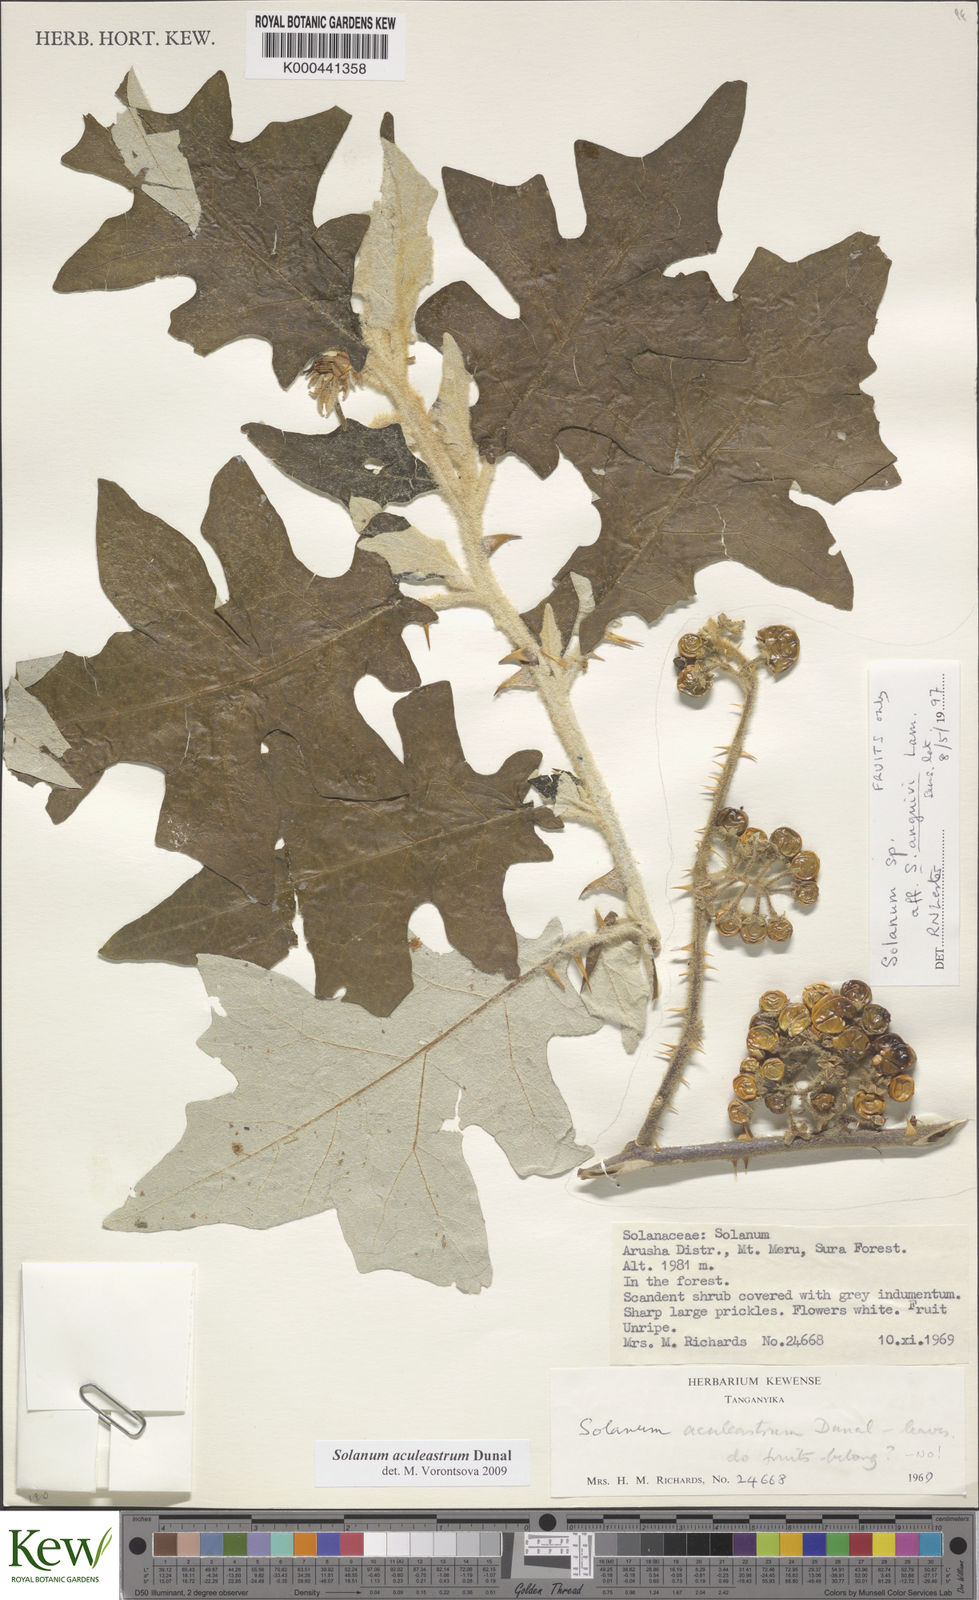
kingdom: Plantae
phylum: Tracheophyta
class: Magnoliopsida
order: Solanales
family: Solanaceae
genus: Solanum
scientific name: Solanum aculeastrum
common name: Goat bitter-apple
